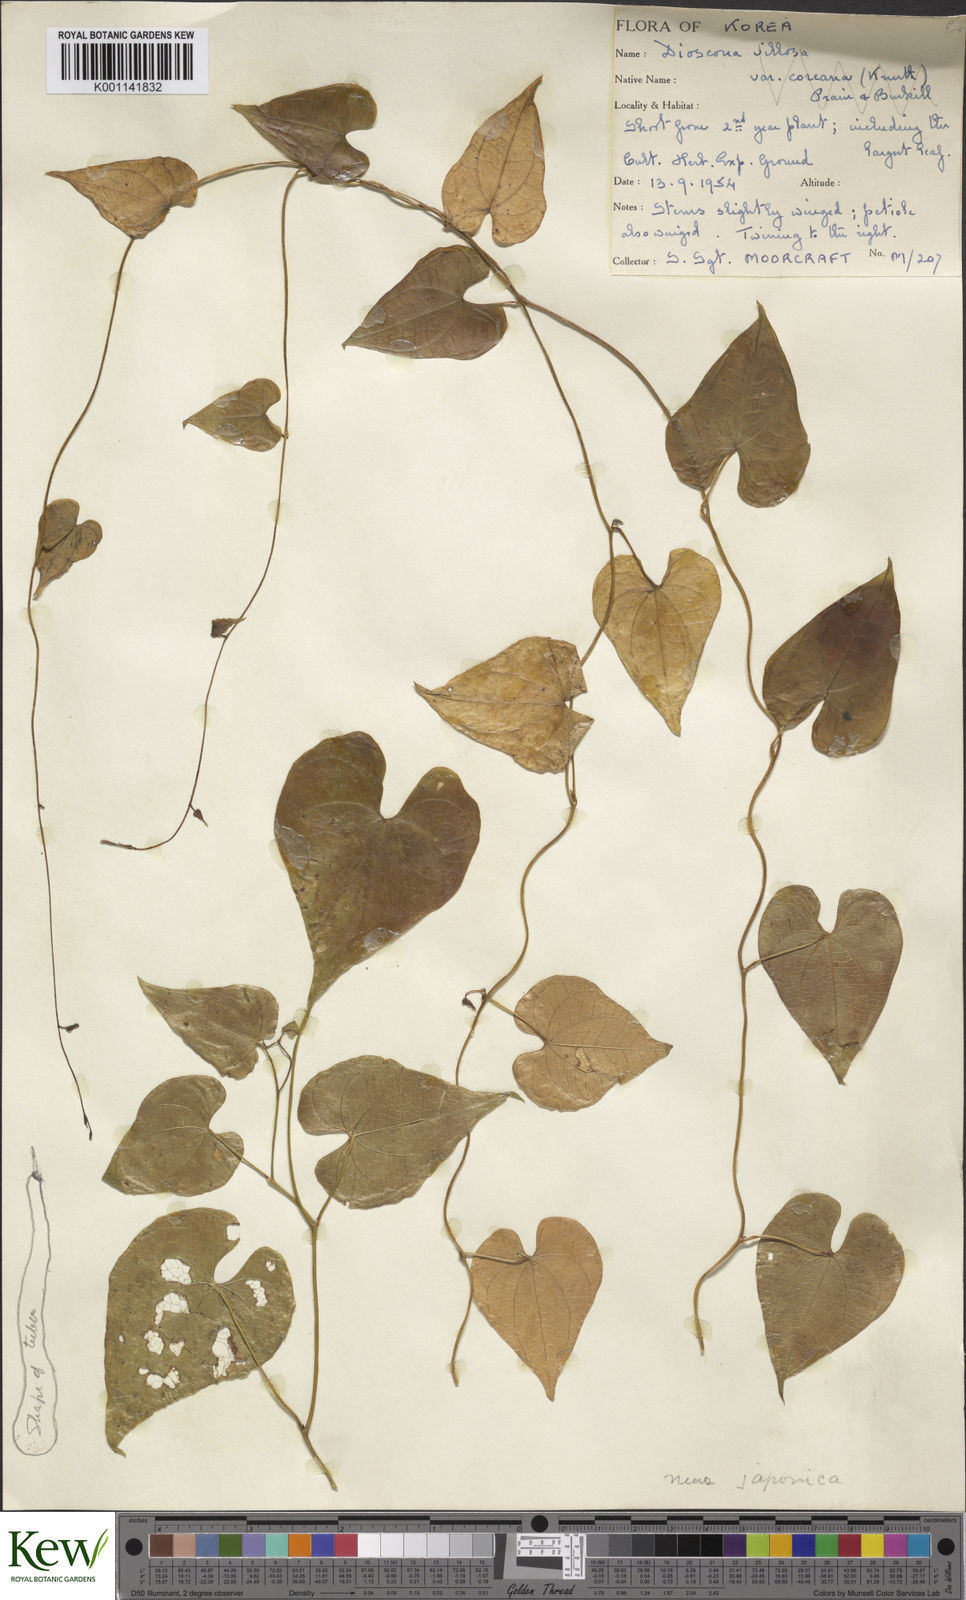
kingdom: Plantae
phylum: Tracheophyta
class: Liliopsida
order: Dioscoreales
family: Dioscoreaceae
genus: Dioscorea
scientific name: Dioscorea japonica
